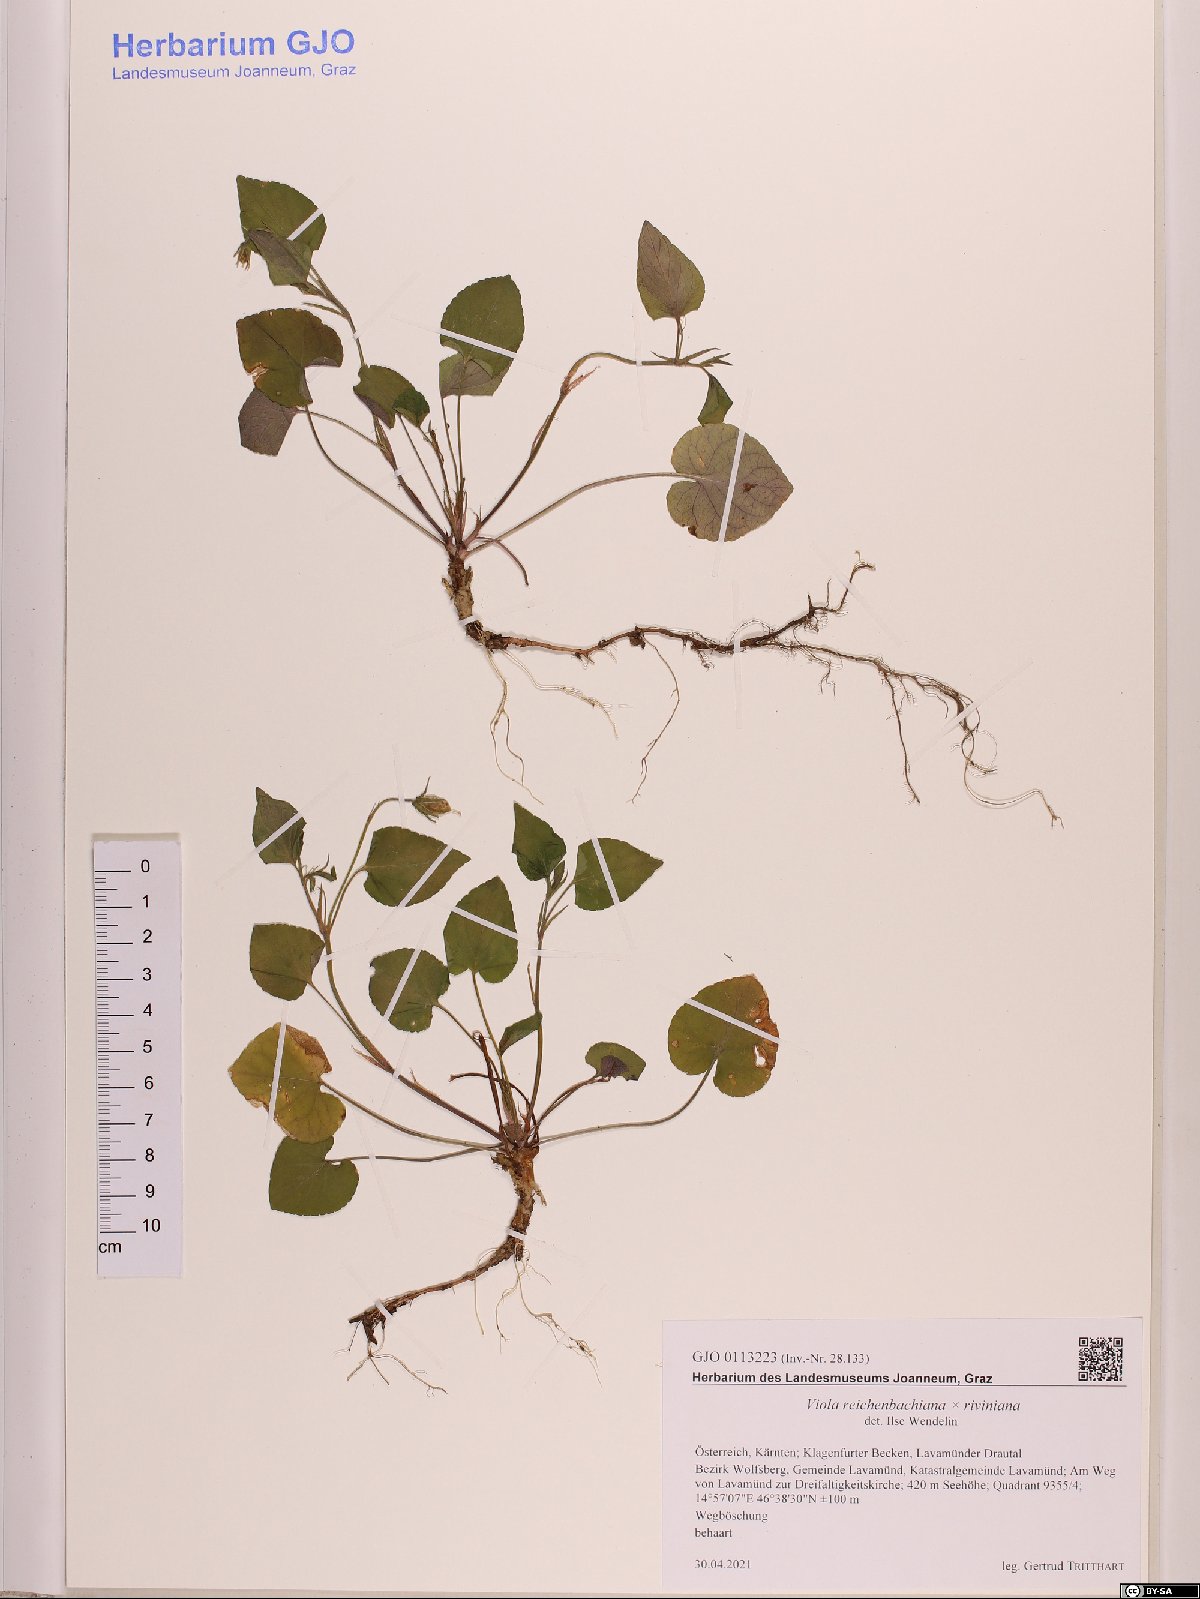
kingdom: Plantae
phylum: Tracheophyta
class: Magnoliopsida
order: Malpighiales
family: Violaceae
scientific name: Violaceae
